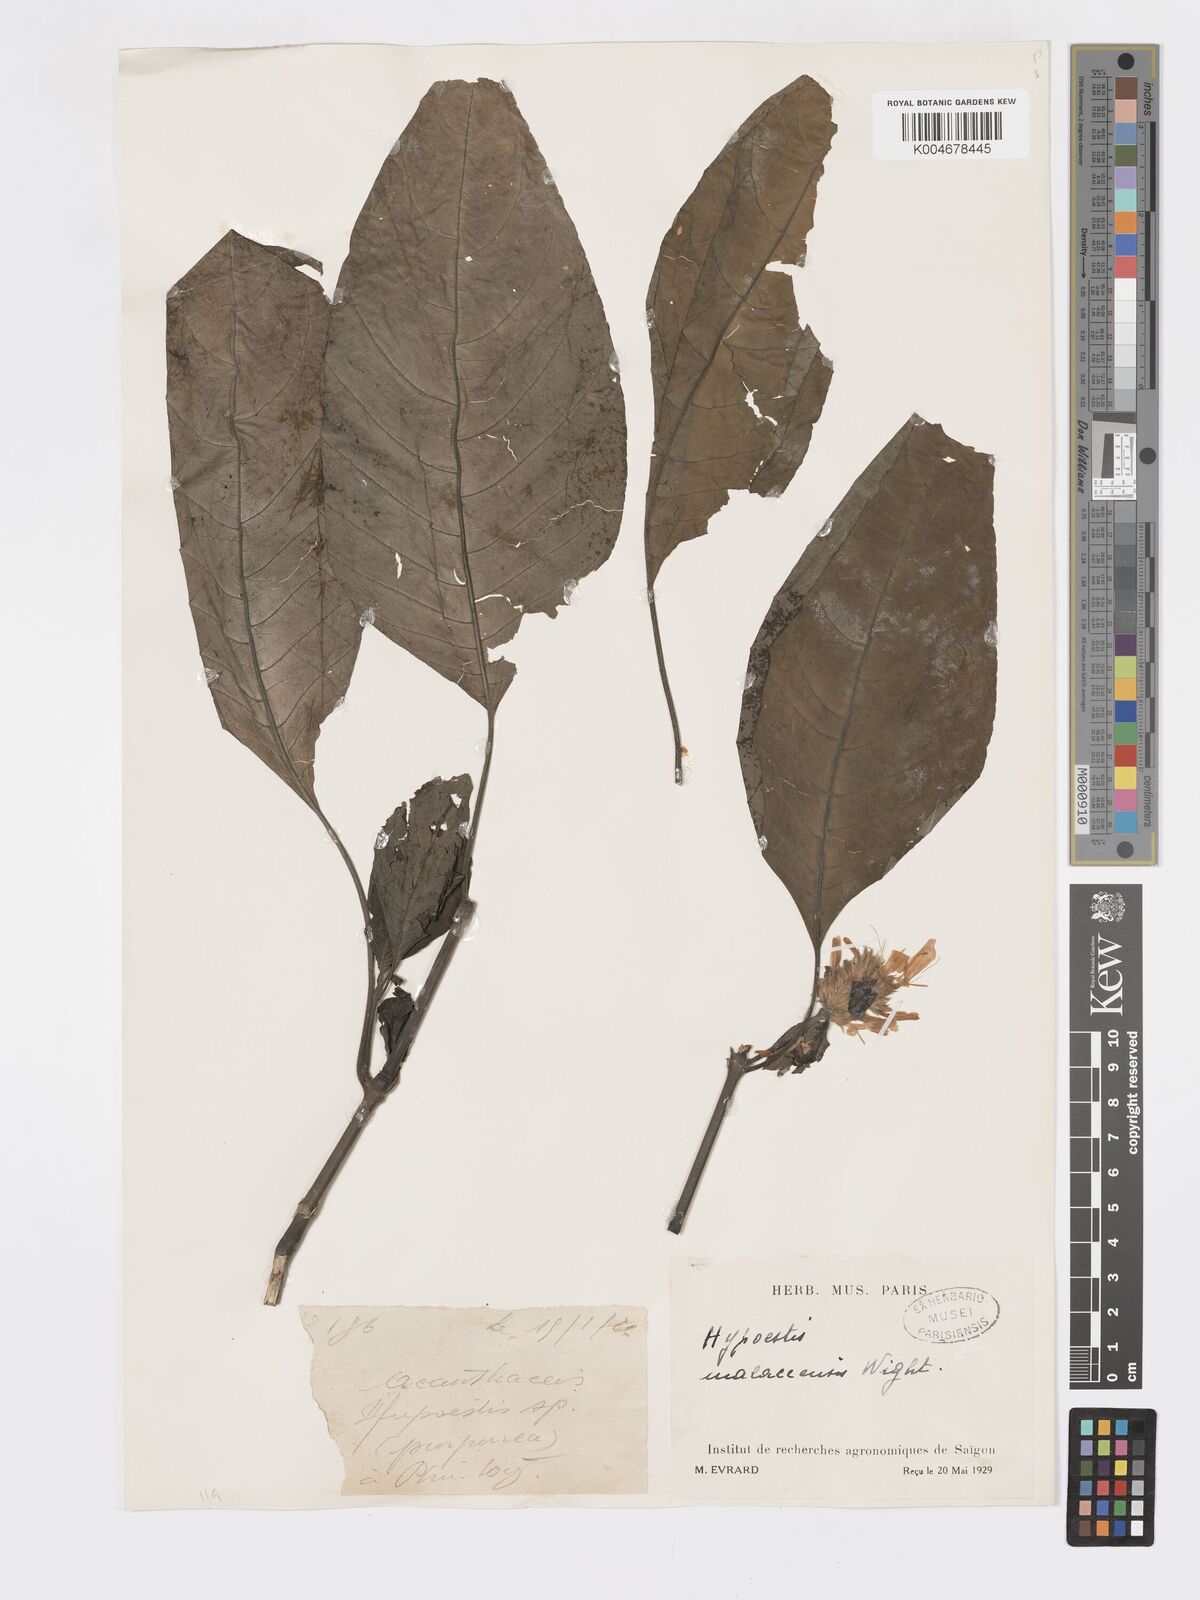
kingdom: Plantae
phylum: Tracheophyta
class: Magnoliopsida
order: Lamiales
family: Acanthaceae
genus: Hypoestes
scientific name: Hypoestes
